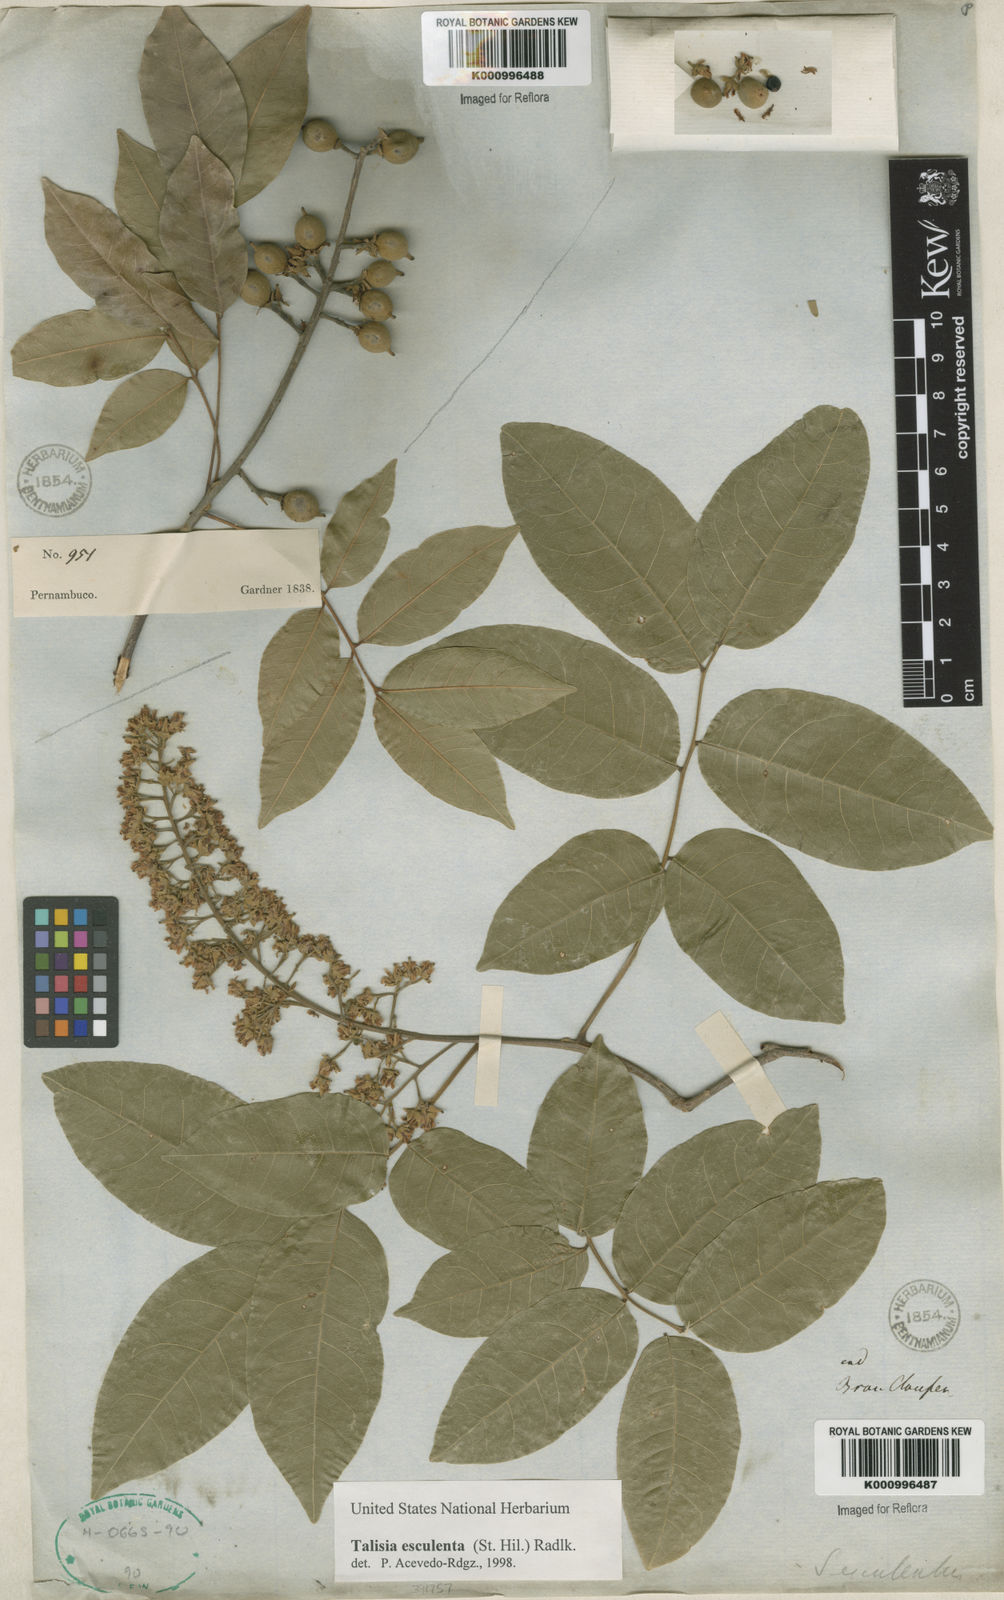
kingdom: Plantae
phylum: Tracheophyta
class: Magnoliopsida
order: Sapindales
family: Sapindaceae
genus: Talisia
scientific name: Talisia
